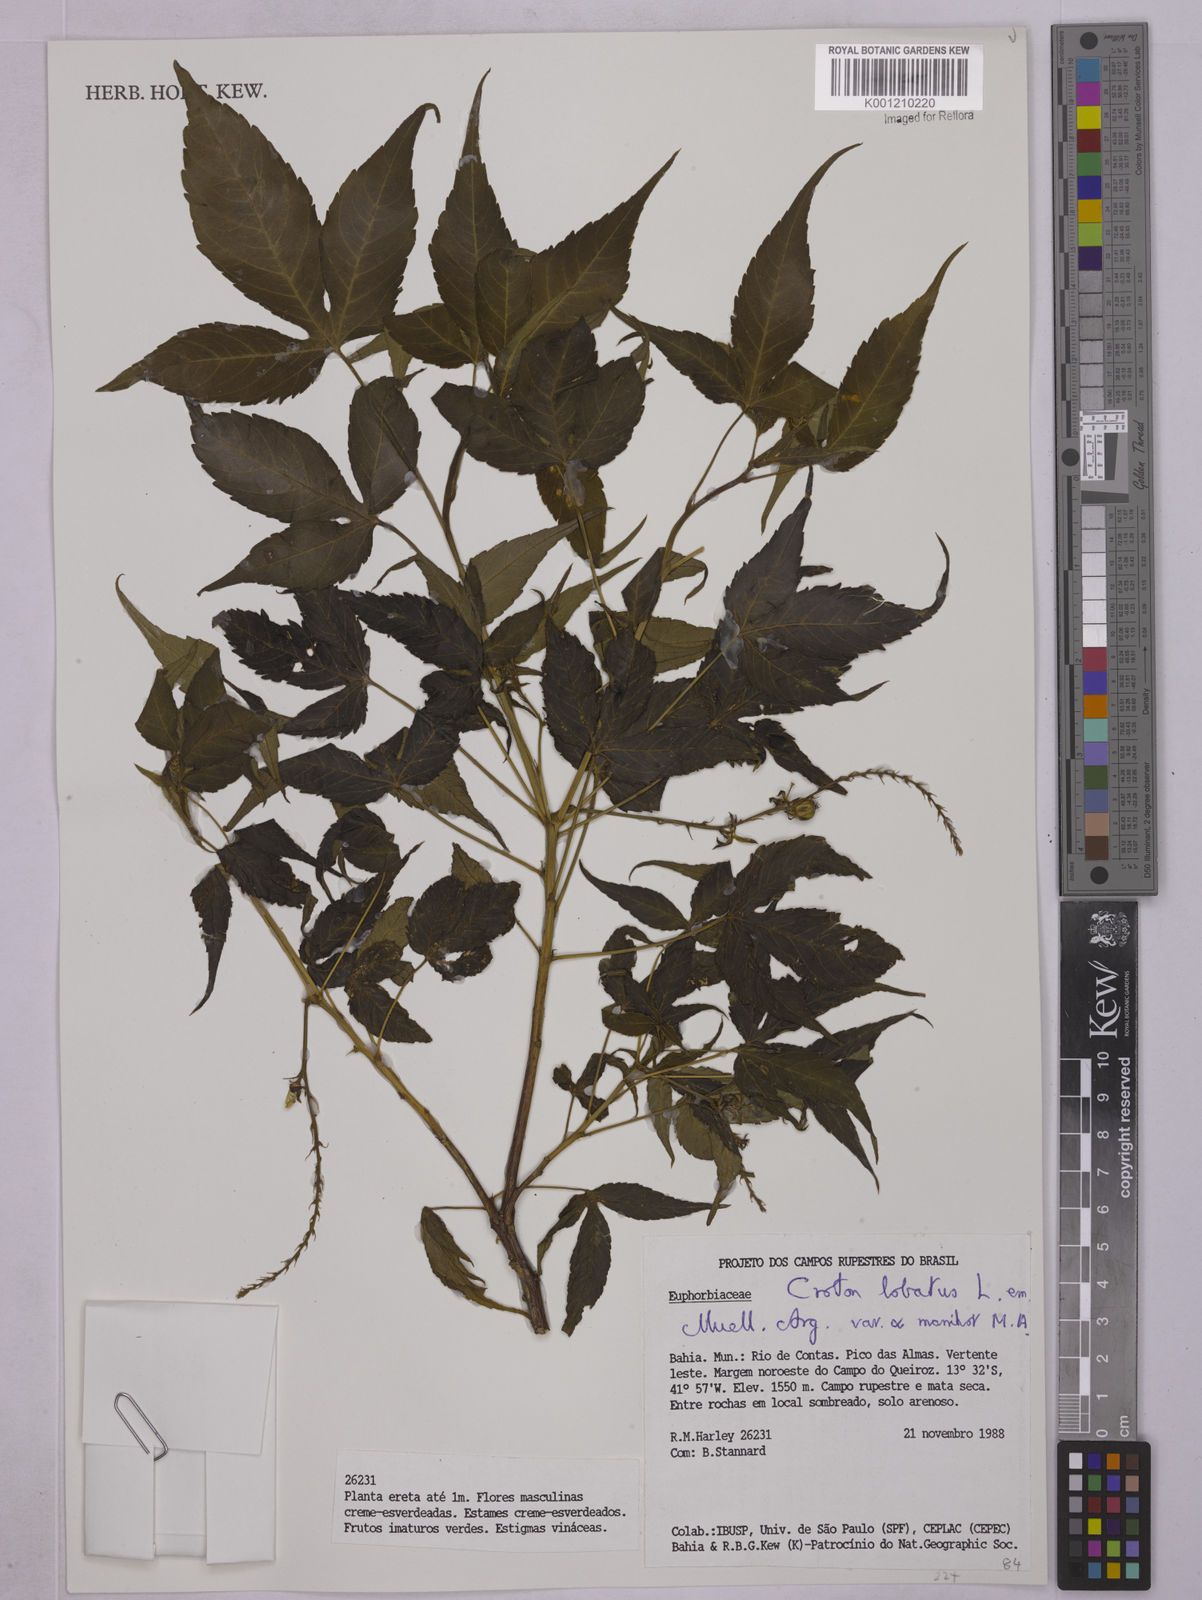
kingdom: Plantae
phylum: Tracheophyta
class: Magnoliopsida
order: Malpighiales
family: Euphorbiaceae
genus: Astraea
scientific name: Astraea lobata
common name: Lobed croton
